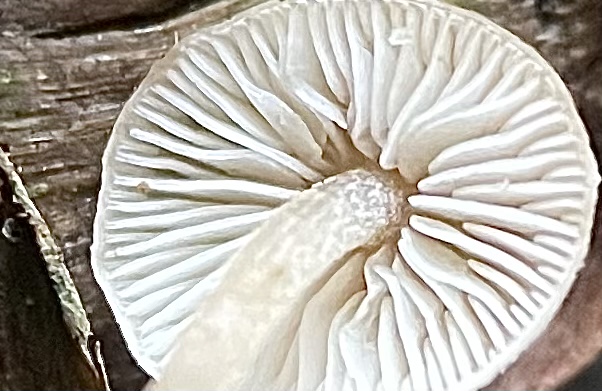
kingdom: Fungi
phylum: Basidiomycota
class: Agaricomycetes
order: Agaricales
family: Marasmiaceae
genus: Baeospora
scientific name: Baeospora myosura
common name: koglebruskhat
